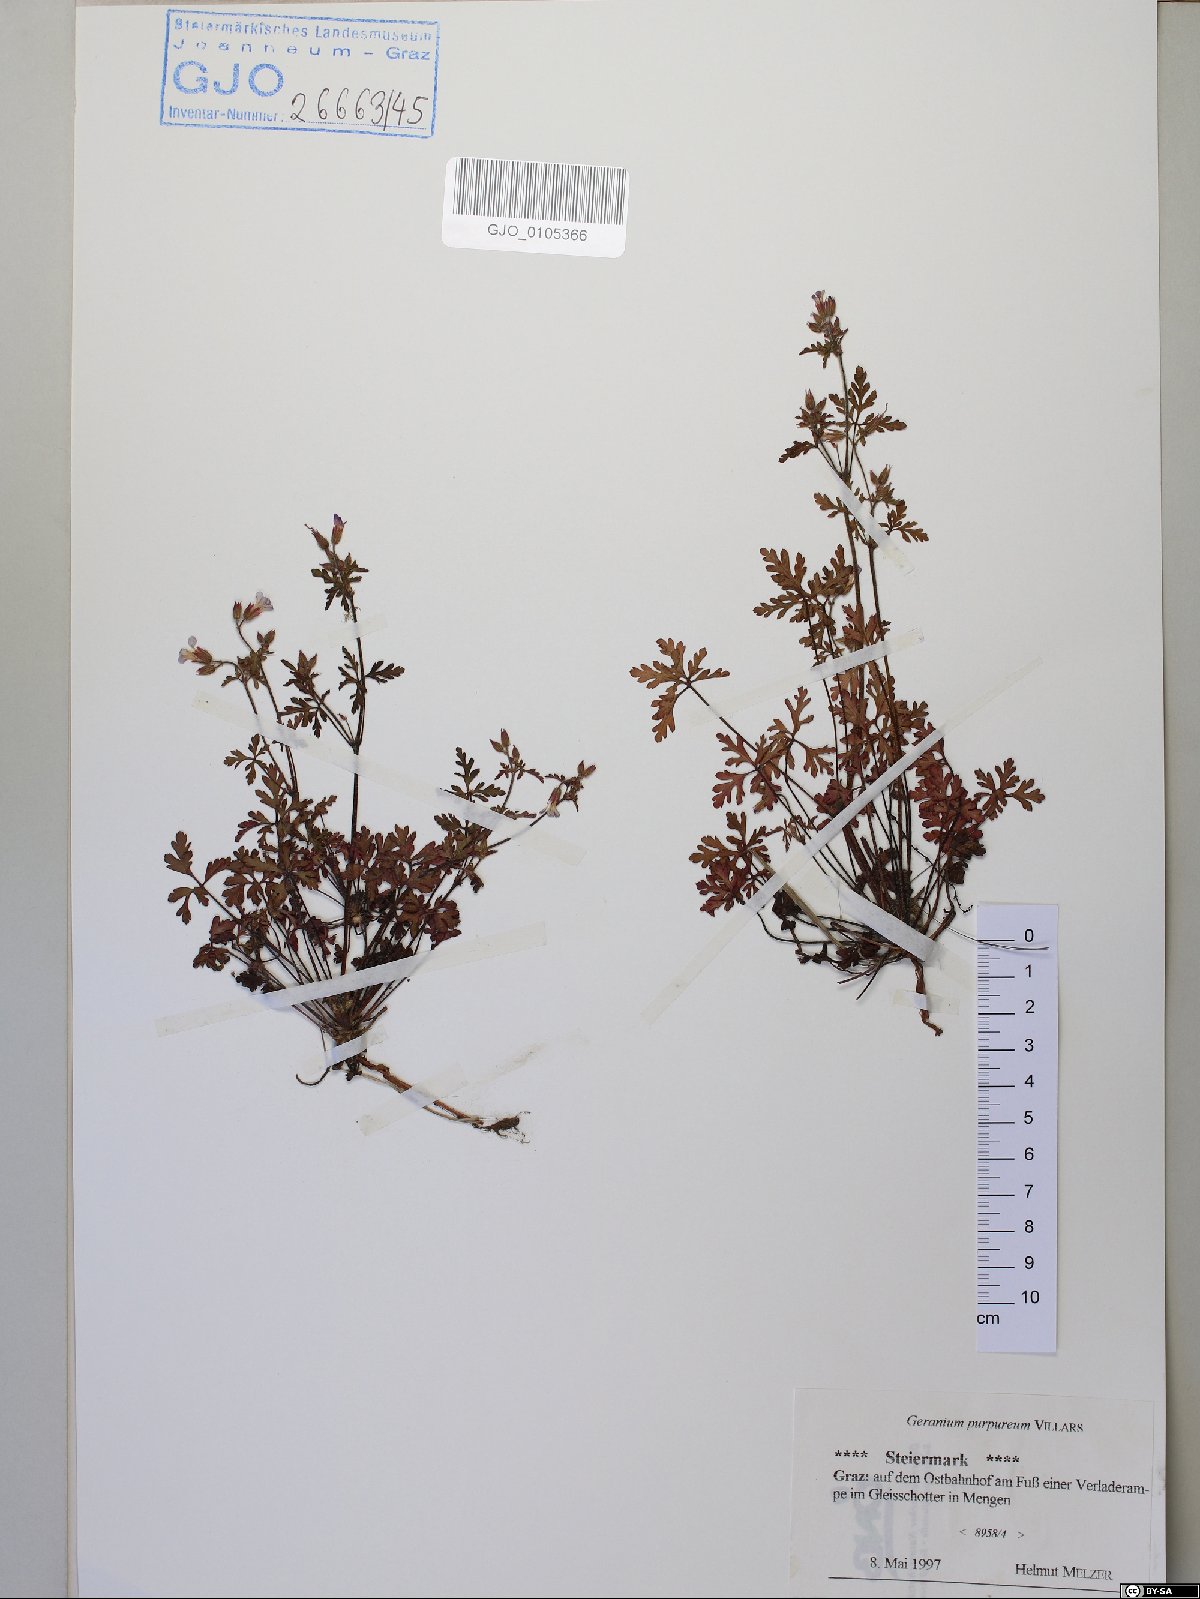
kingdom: Plantae
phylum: Tracheophyta
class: Magnoliopsida
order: Geraniales
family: Geraniaceae
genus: Geranium
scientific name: Geranium purpureum
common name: Little-robin
